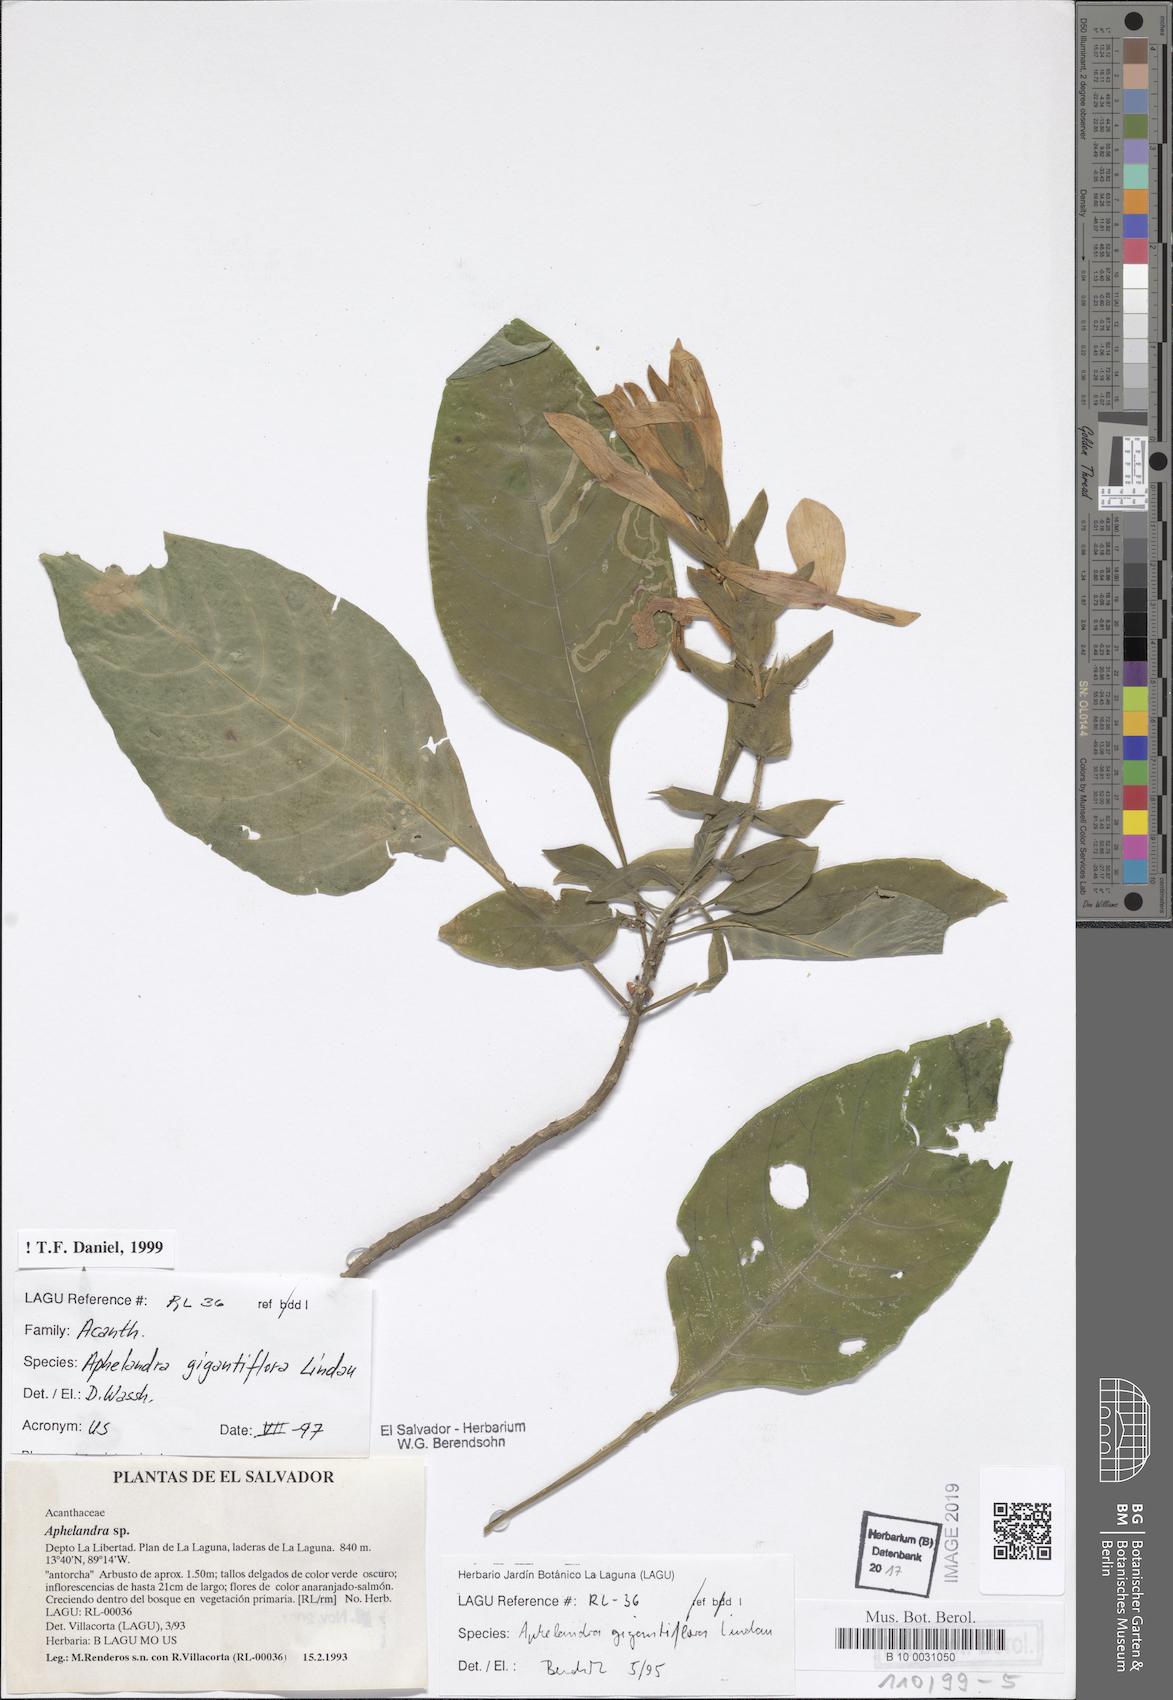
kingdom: Plantae
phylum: Tracheophyta
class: Magnoliopsida
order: Lamiales
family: Acanthaceae
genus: Aphelandra
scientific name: Aphelandra gigantiflora
